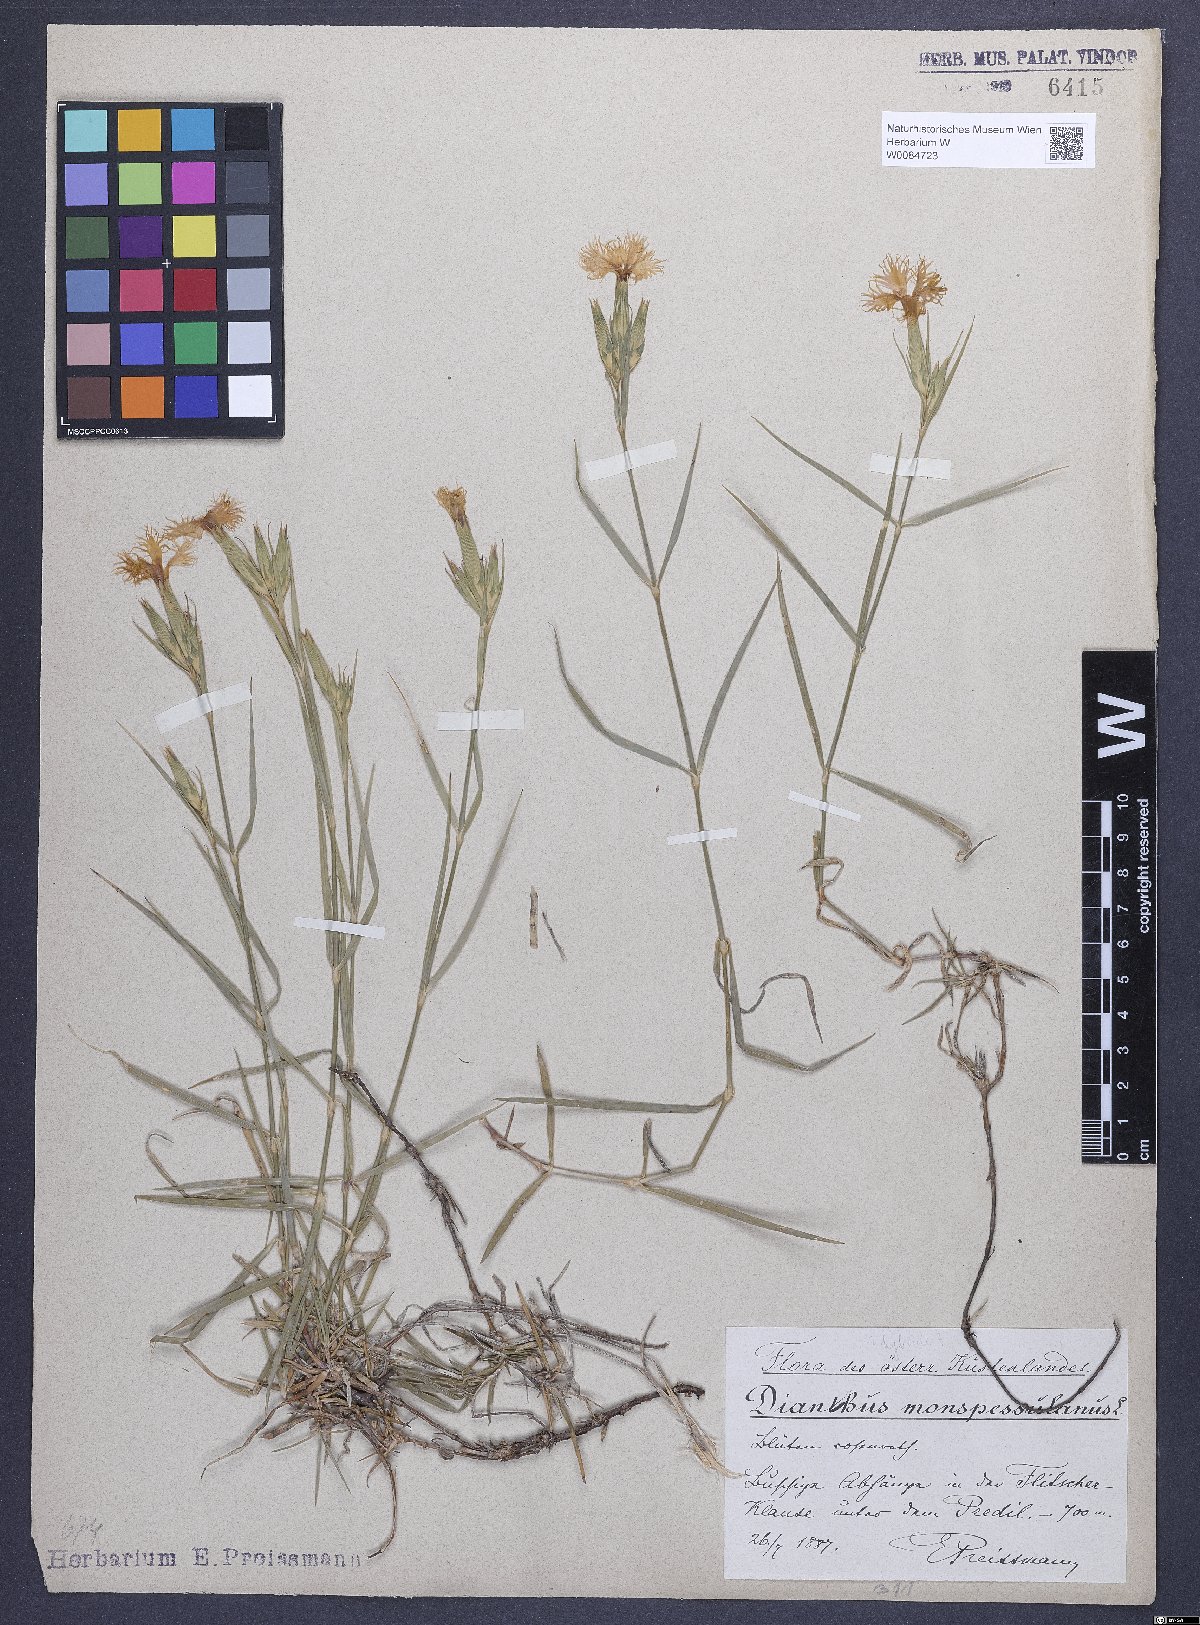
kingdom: Plantae
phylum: Tracheophyta
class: Magnoliopsida
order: Caryophyllales
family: Caryophyllaceae
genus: Dianthus
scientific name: Dianthus hyssopifolius
